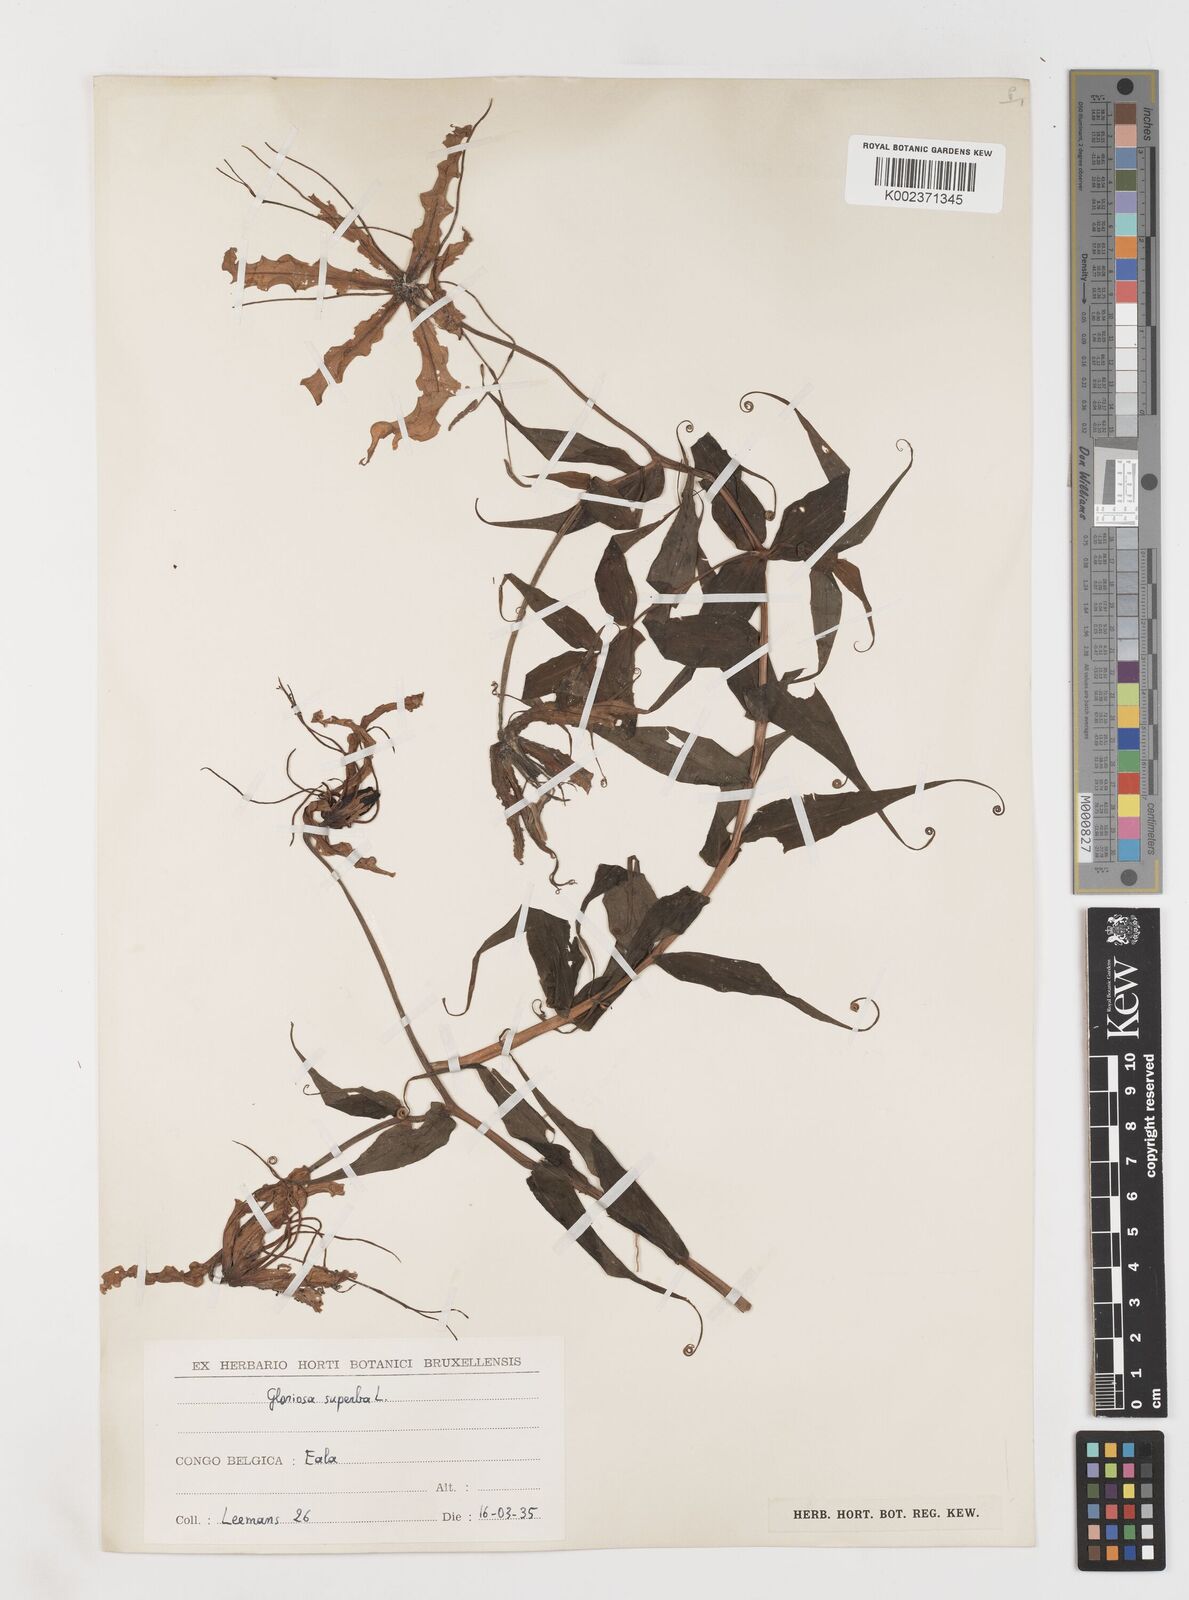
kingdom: Plantae
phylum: Tracheophyta
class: Liliopsida
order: Liliales
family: Colchicaceae
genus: Gloriosa
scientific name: Gloriosa superba
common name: Flame lily
